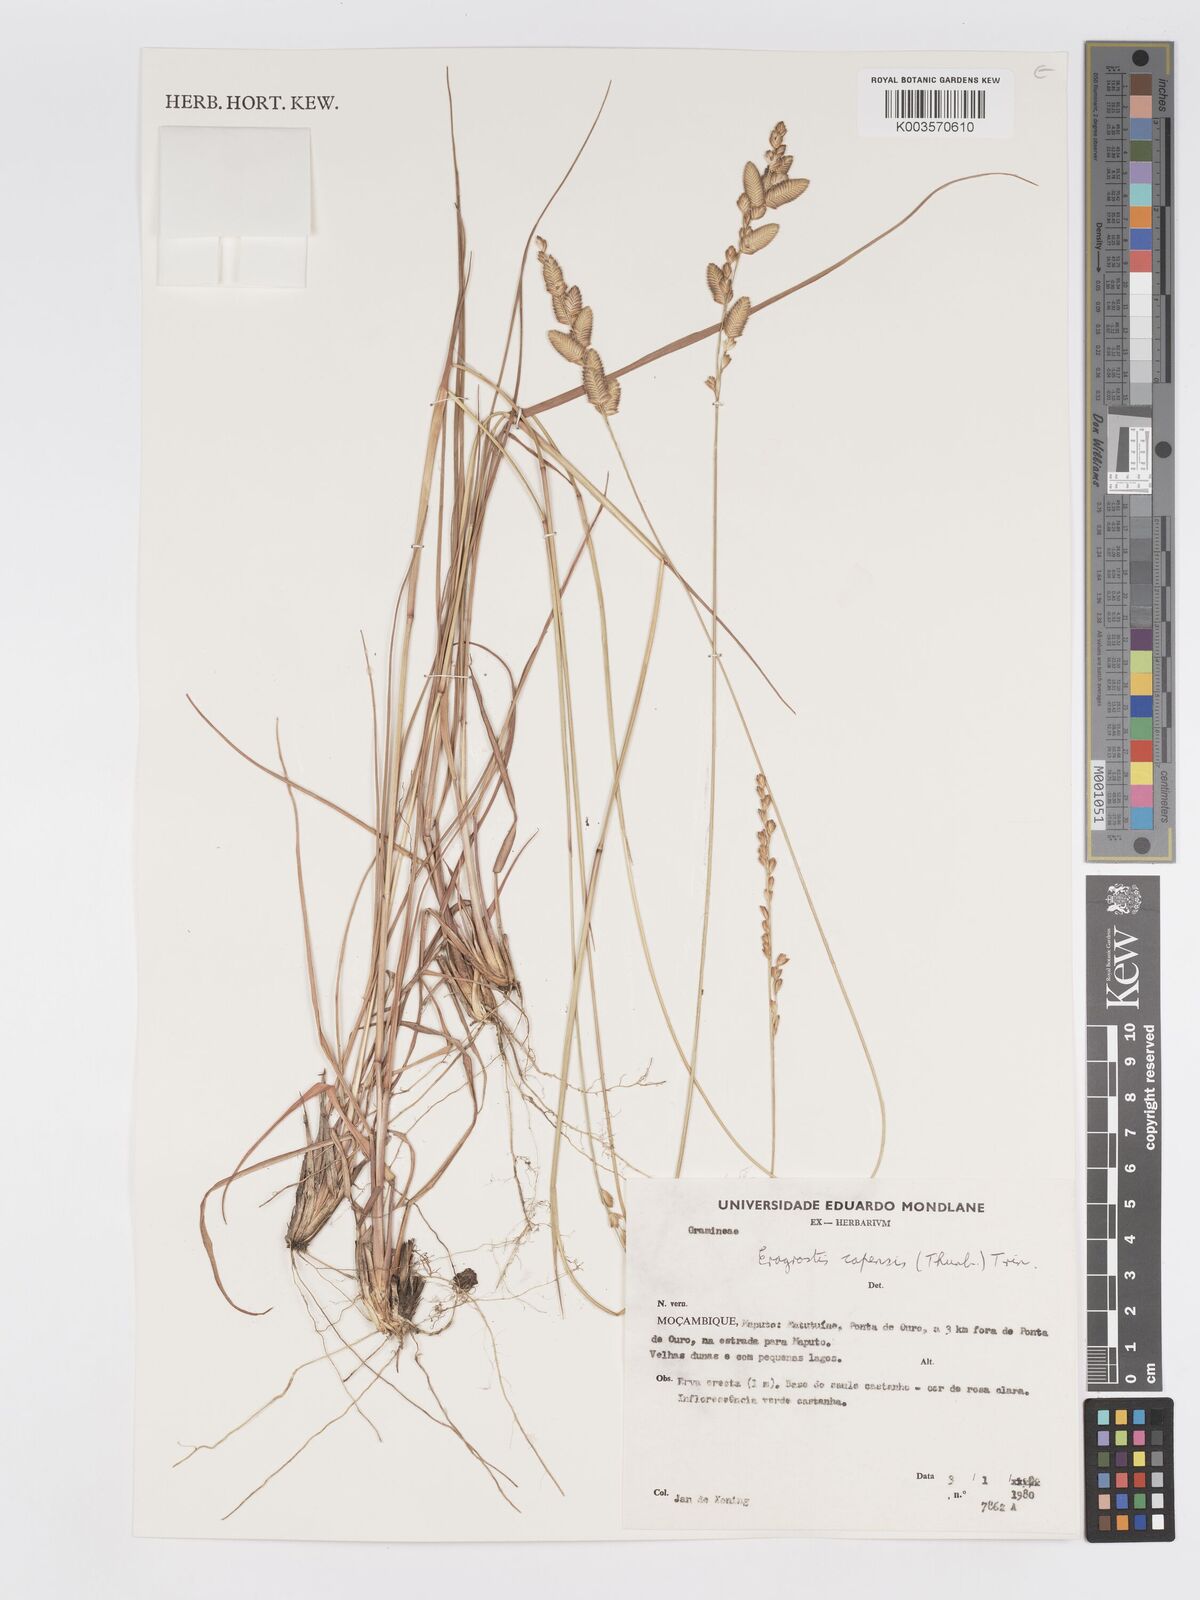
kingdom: Plantae
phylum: Tracheophyta
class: Liliopsida
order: Poales
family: Poaceae
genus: Eragrostis
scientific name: Eragrostis capensis
